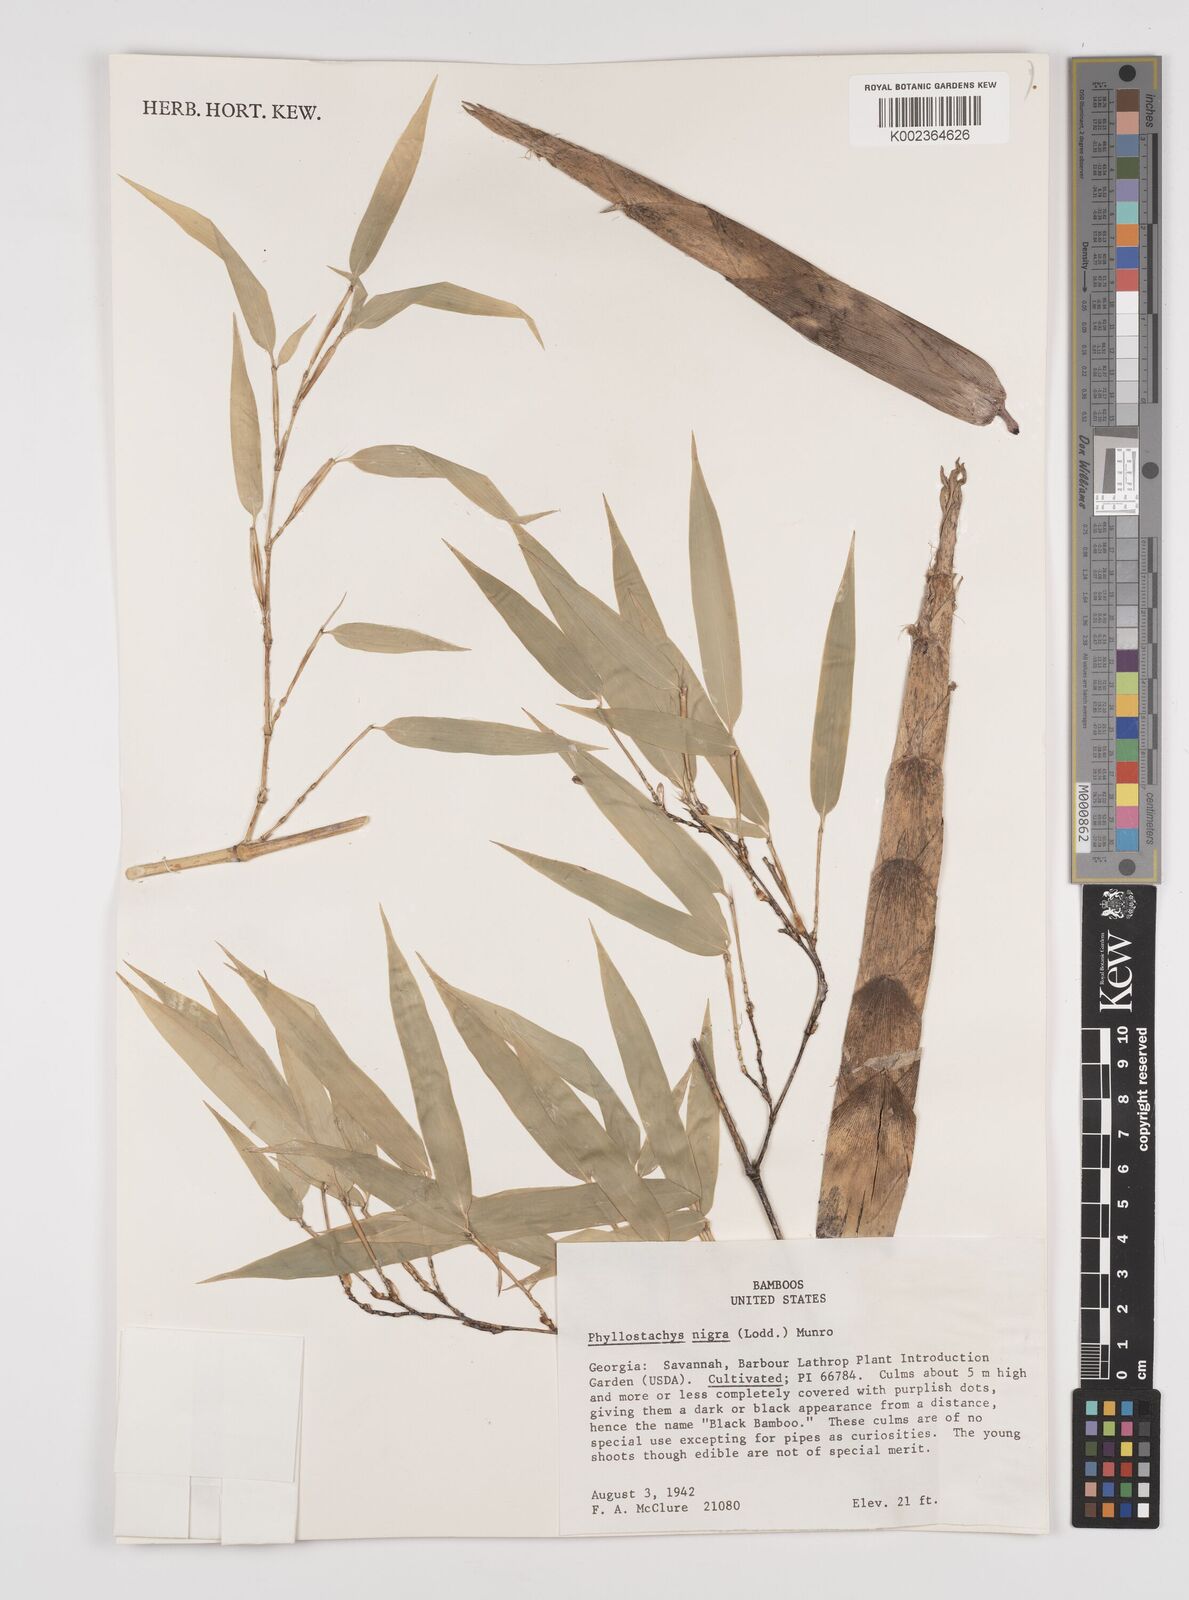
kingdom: Plantae
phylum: Tracheophyta
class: Liliopsida
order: Poales
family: Poaceae
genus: Phyllostachys
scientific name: Phyllostachys nigra
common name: Black bamboo
